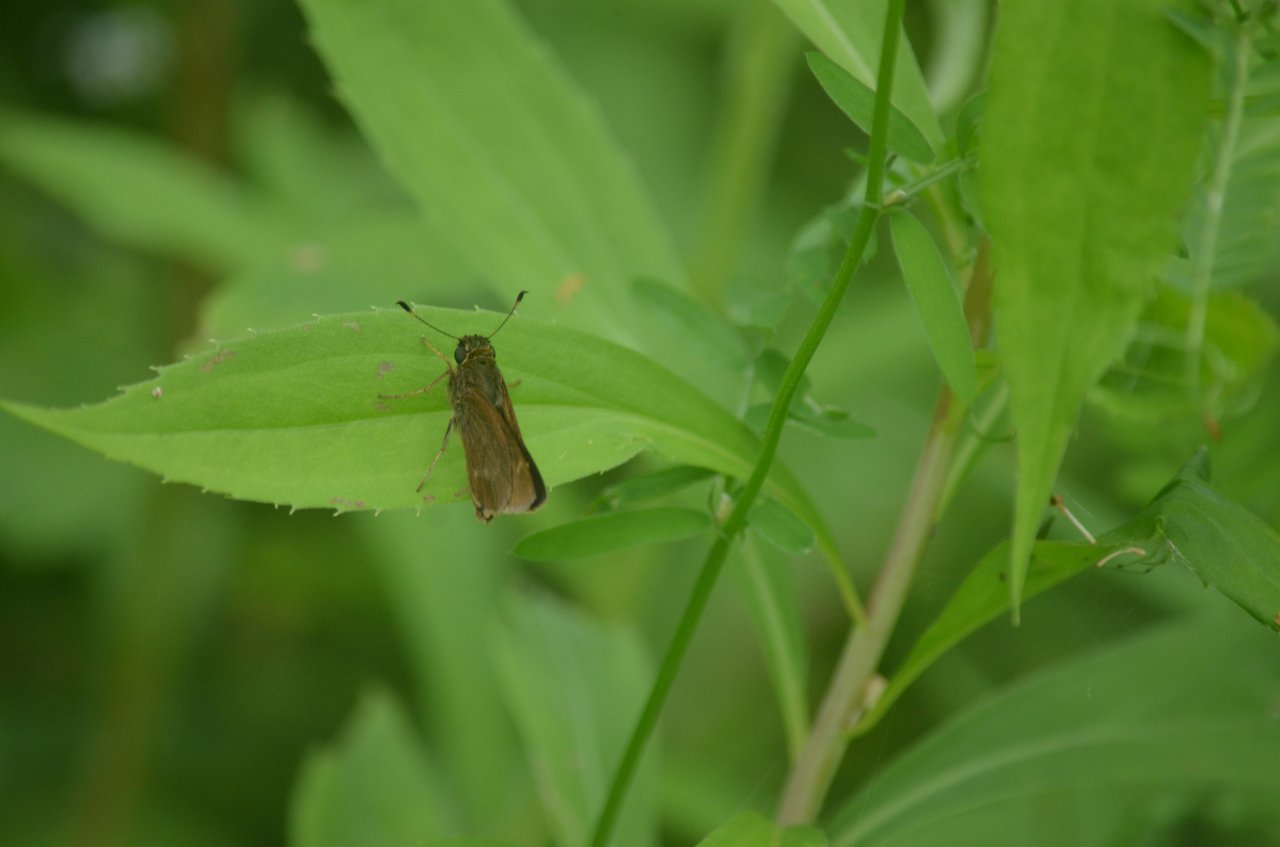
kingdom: Animalia
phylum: Arthropoda
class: Insecta
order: Lepidoptera
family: Hesperiidae
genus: Euphyes
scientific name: Euphyes vestris
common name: Dun Skipper
